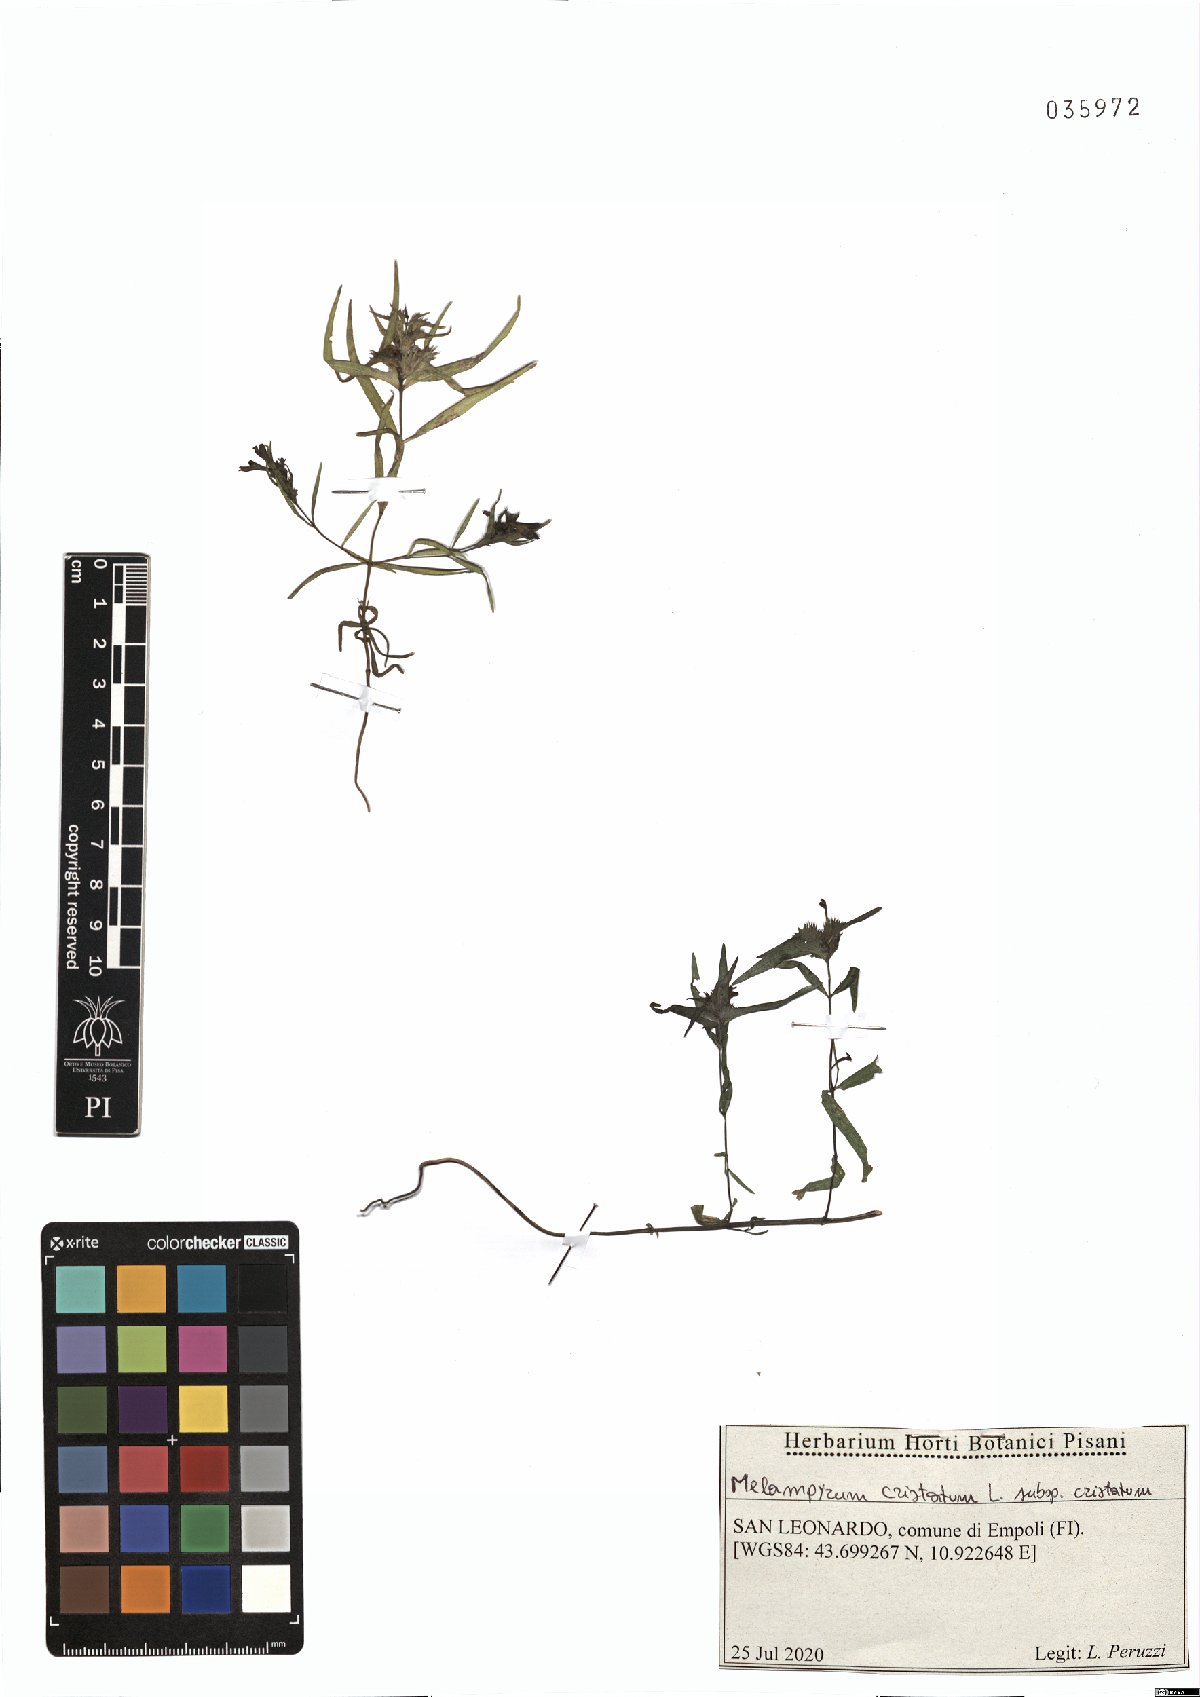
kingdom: Plantae
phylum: Tracheophyta
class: Magnoliopsida
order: Lamiales
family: Orobanchaceae
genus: Melampyrum
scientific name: Melampyrum cristatum
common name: Crested cow-wheat
